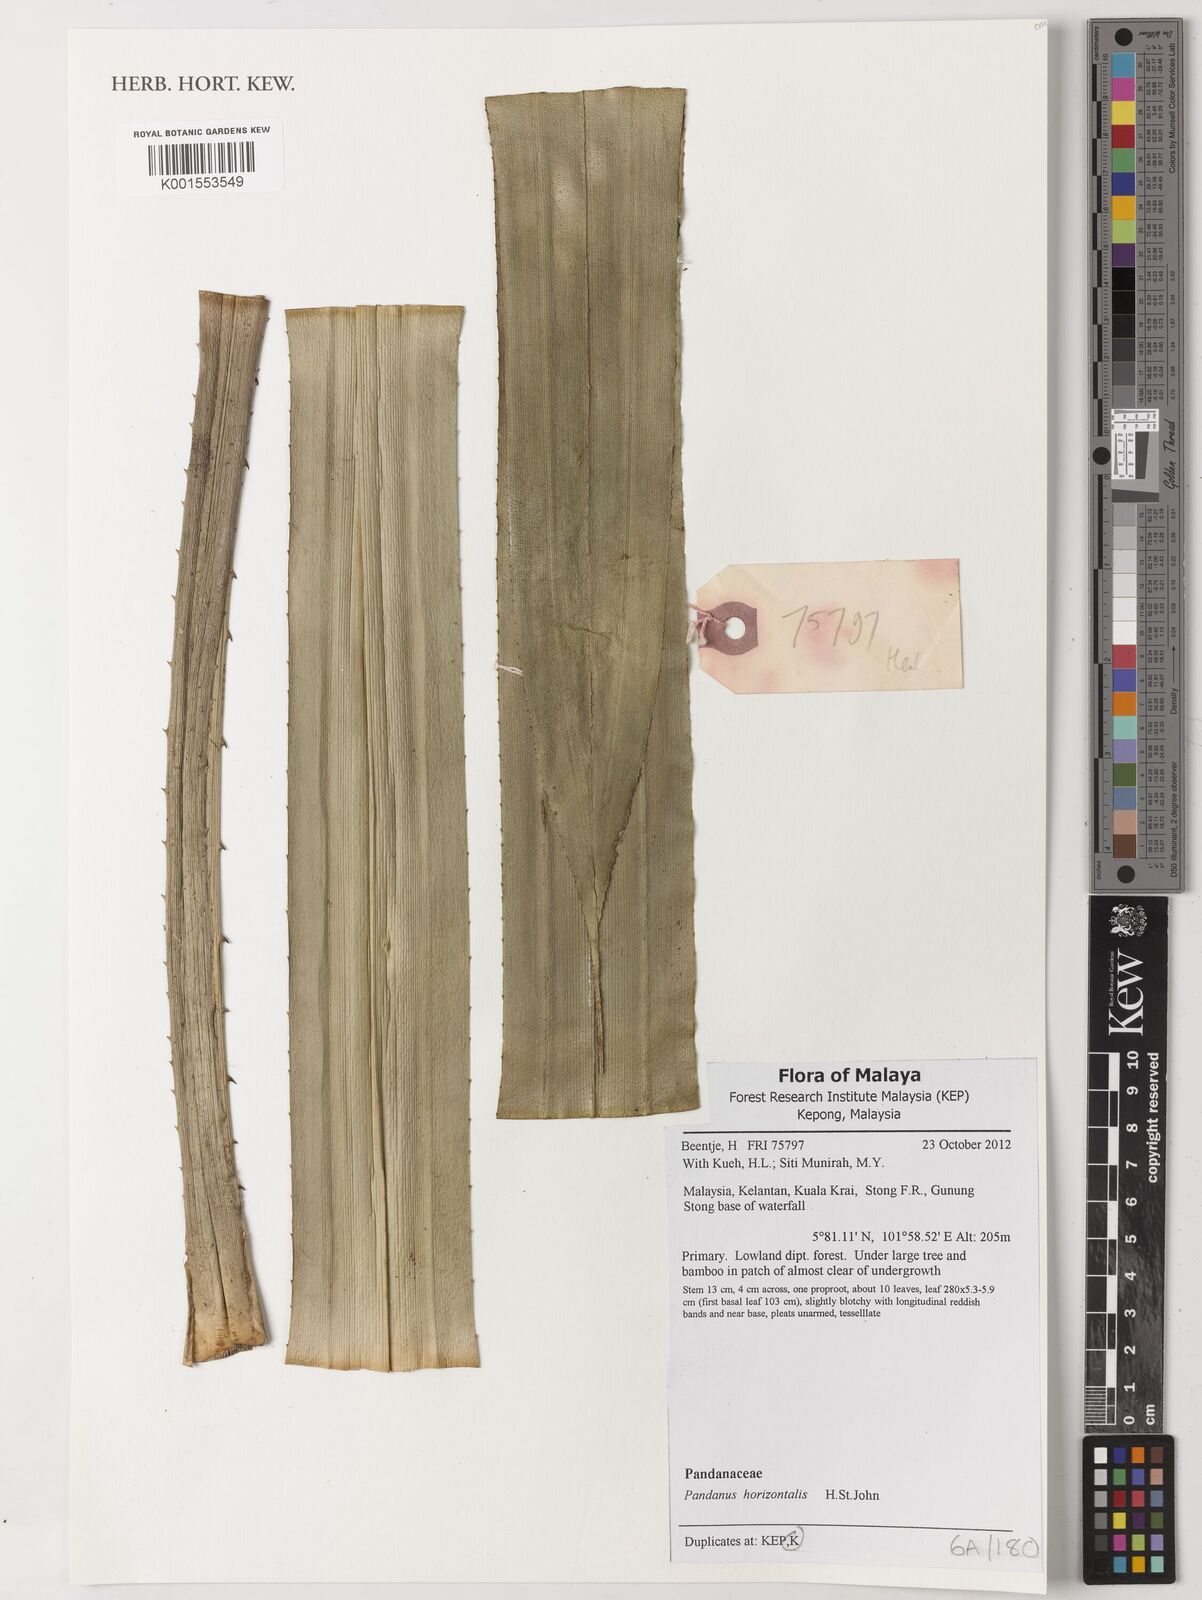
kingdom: Plantae
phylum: Tracheophyta
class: Liliopsida
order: Pandanales
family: Pandanaceae
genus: Pandanus
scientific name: Pandanus horizontalis
